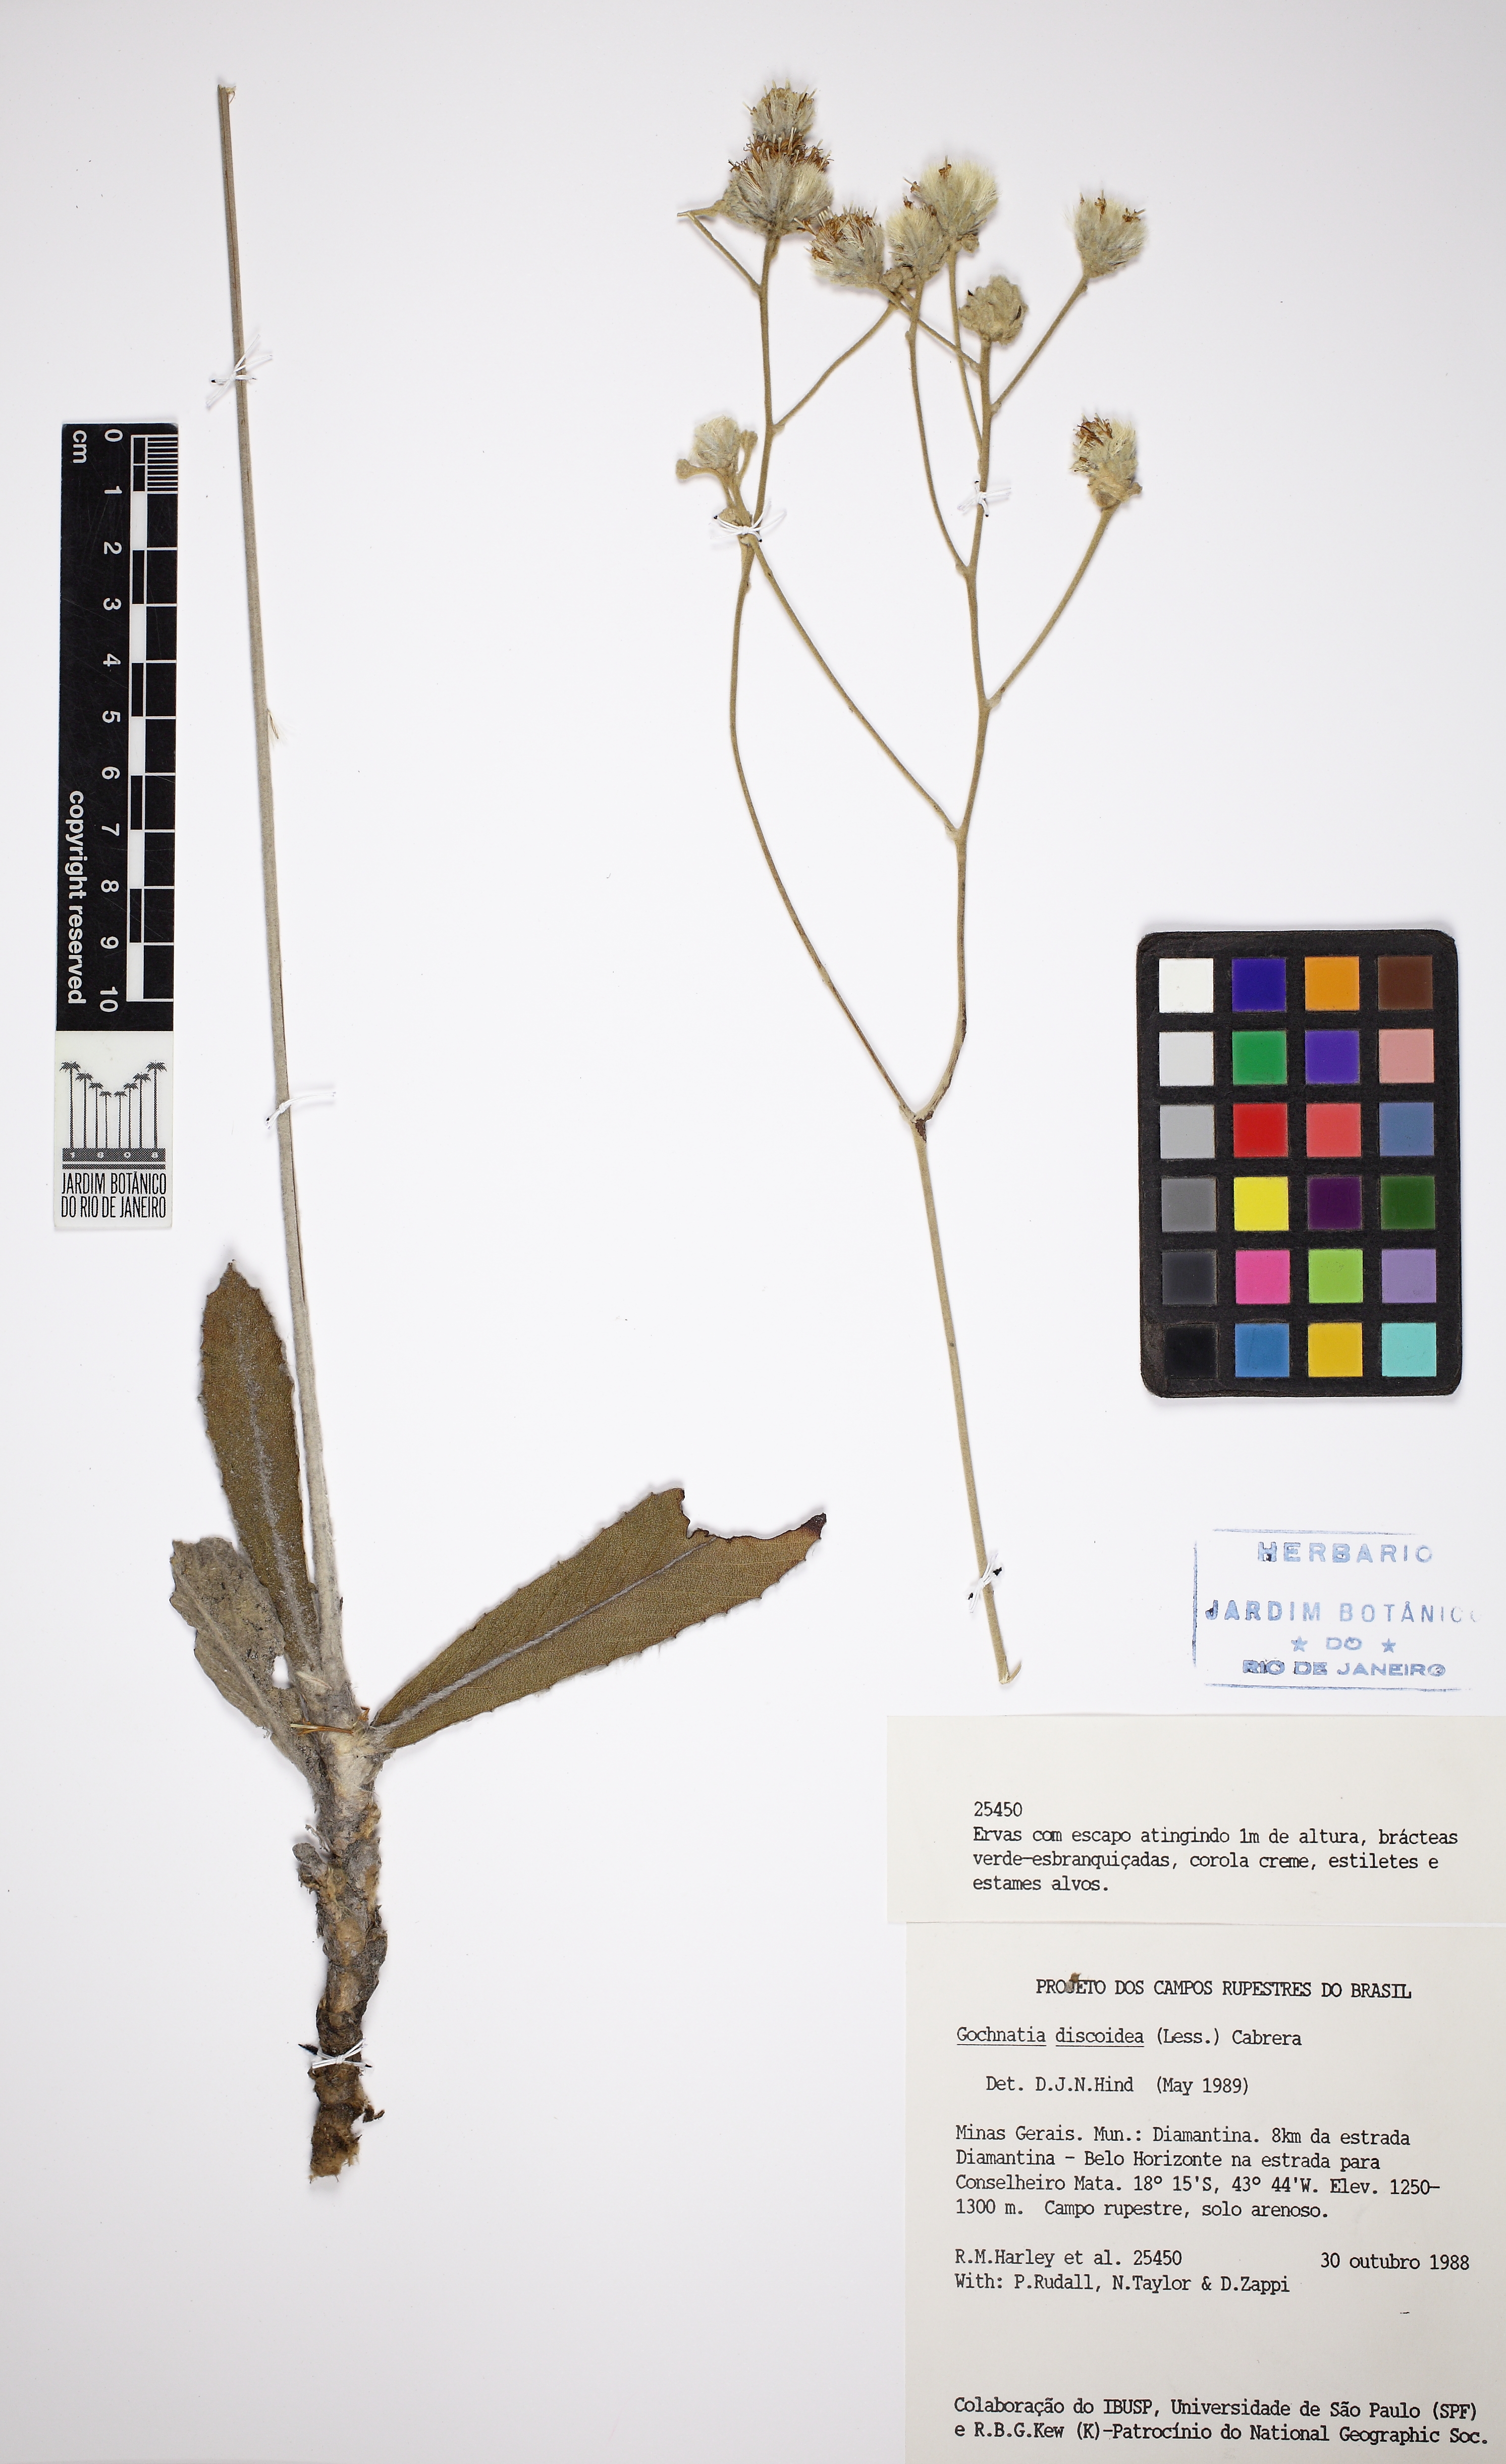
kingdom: Plantae
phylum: Tracheophyta
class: Magnoliopsida
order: Asterales
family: Asteraceae
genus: Richterago
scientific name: Richterago discoidea
